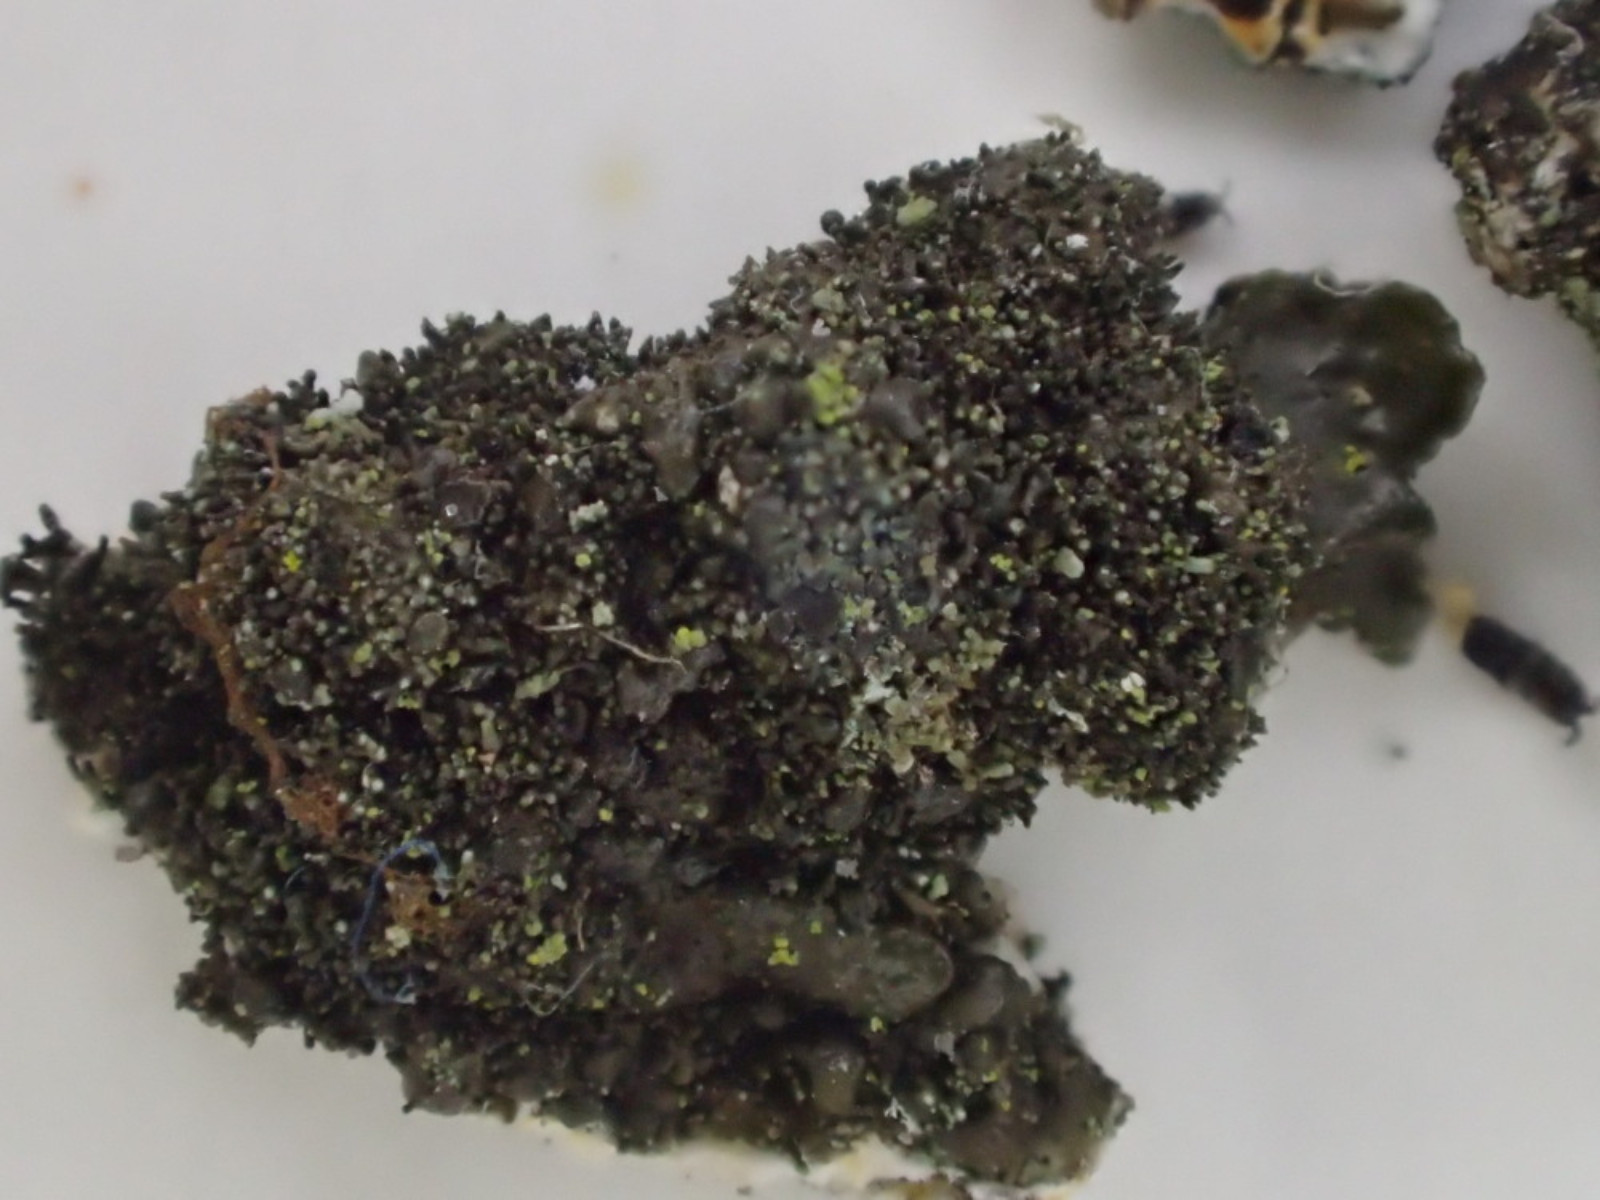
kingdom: Fungi
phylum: Ascomycota
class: Lecanoromycetes
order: Lecanorales
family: Parmeliaceae
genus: Melanelixia
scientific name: Melanelixia fuliginosa
